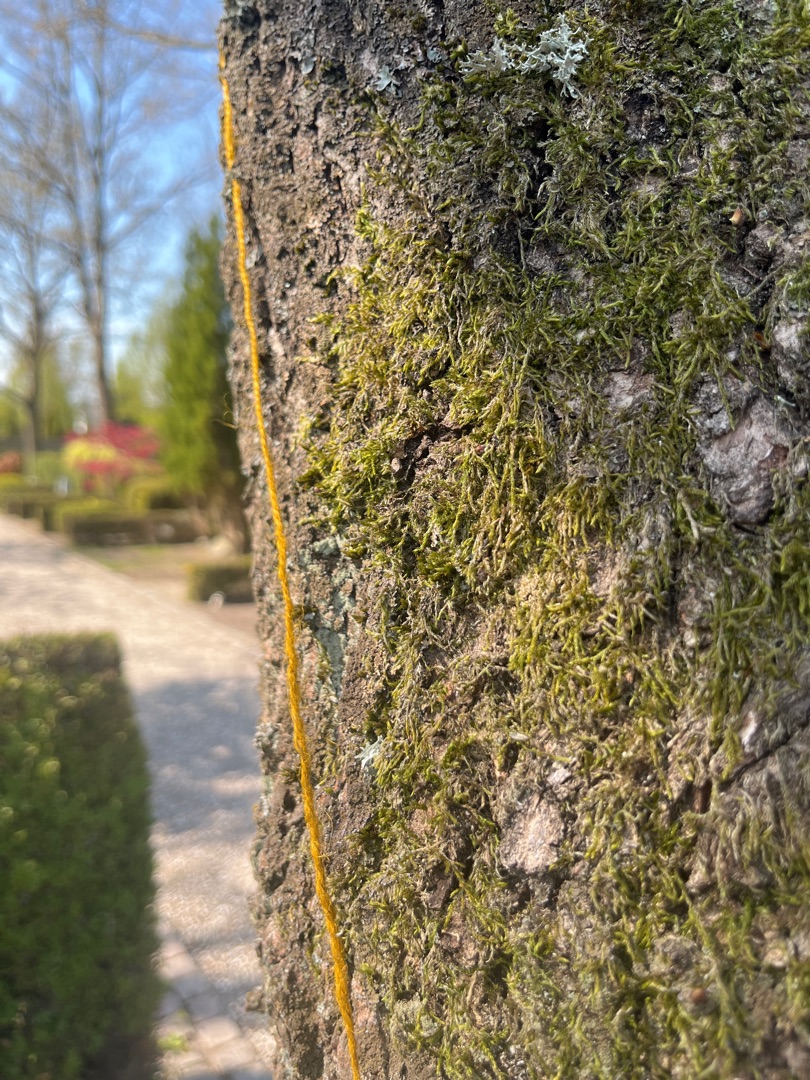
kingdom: Plantae
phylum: Bryophyta
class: Bryopsida
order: Hypnales
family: Hypnaceae
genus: Hypnum
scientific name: Hypnum
